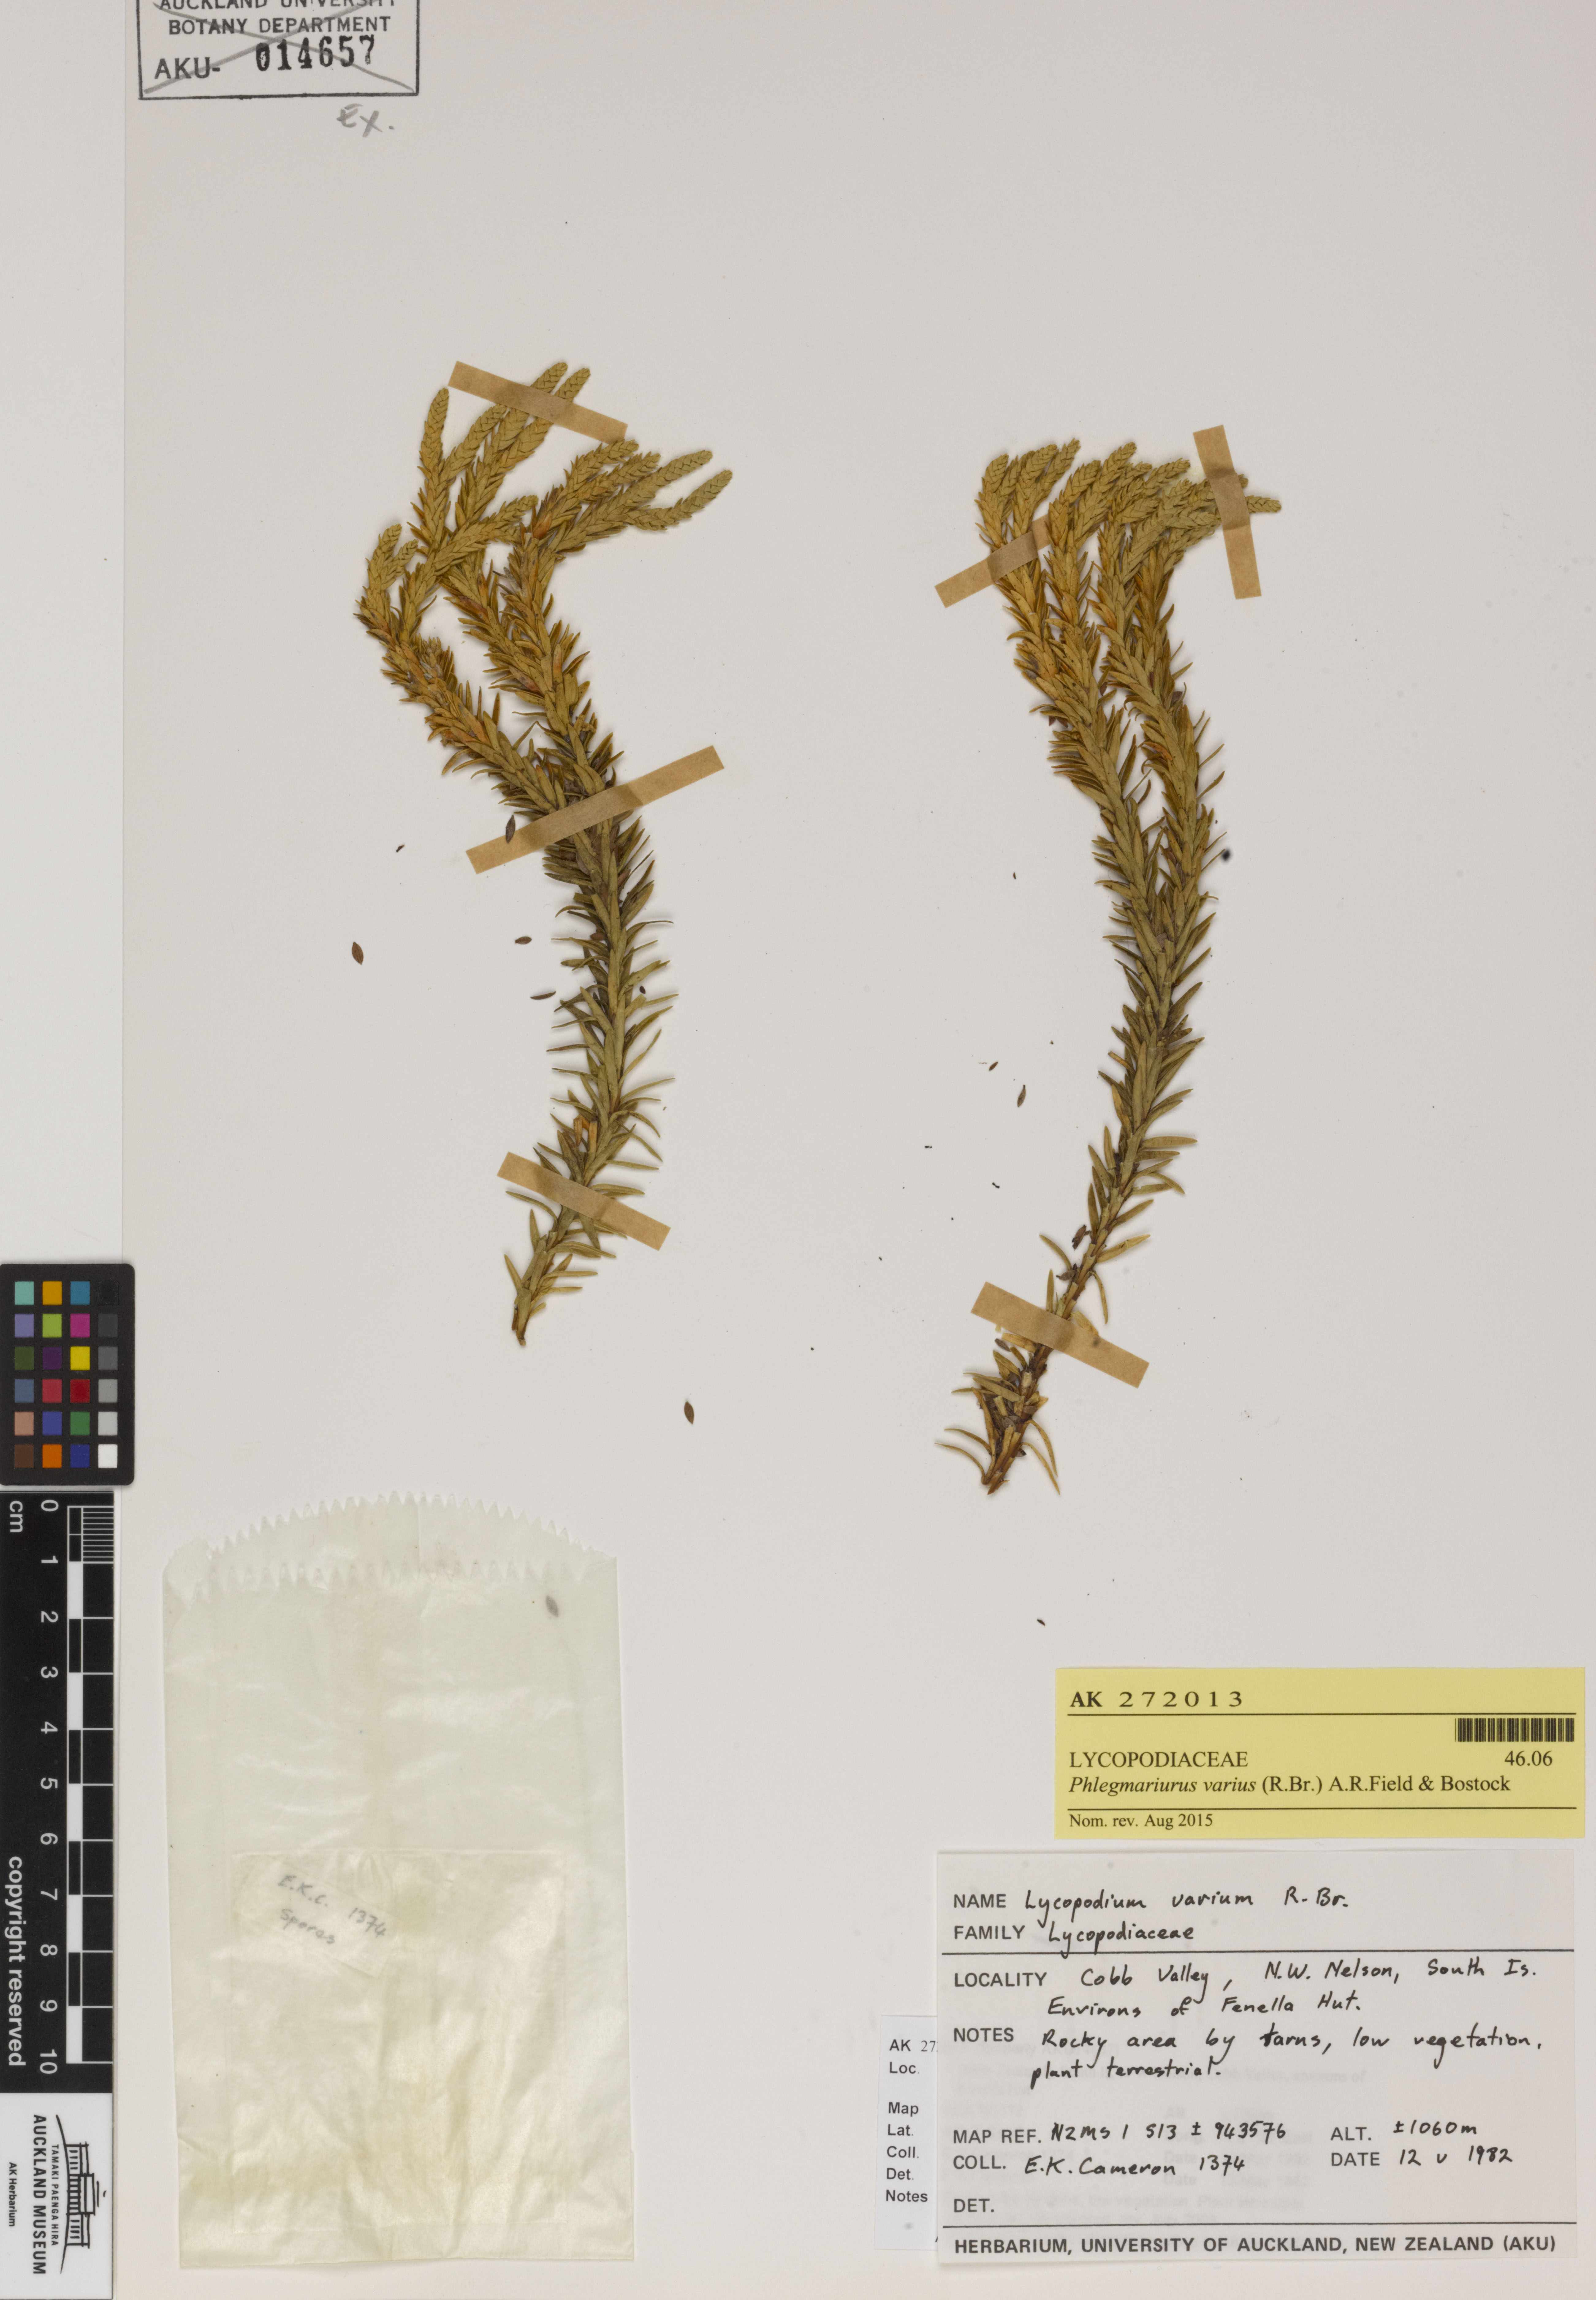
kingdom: Plantae
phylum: Tracheophyta
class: Lycopodiopsida
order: Lycopodiales
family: Lycopodiaceae
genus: Phlegmariurus
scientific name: Phlegmariurus varius
